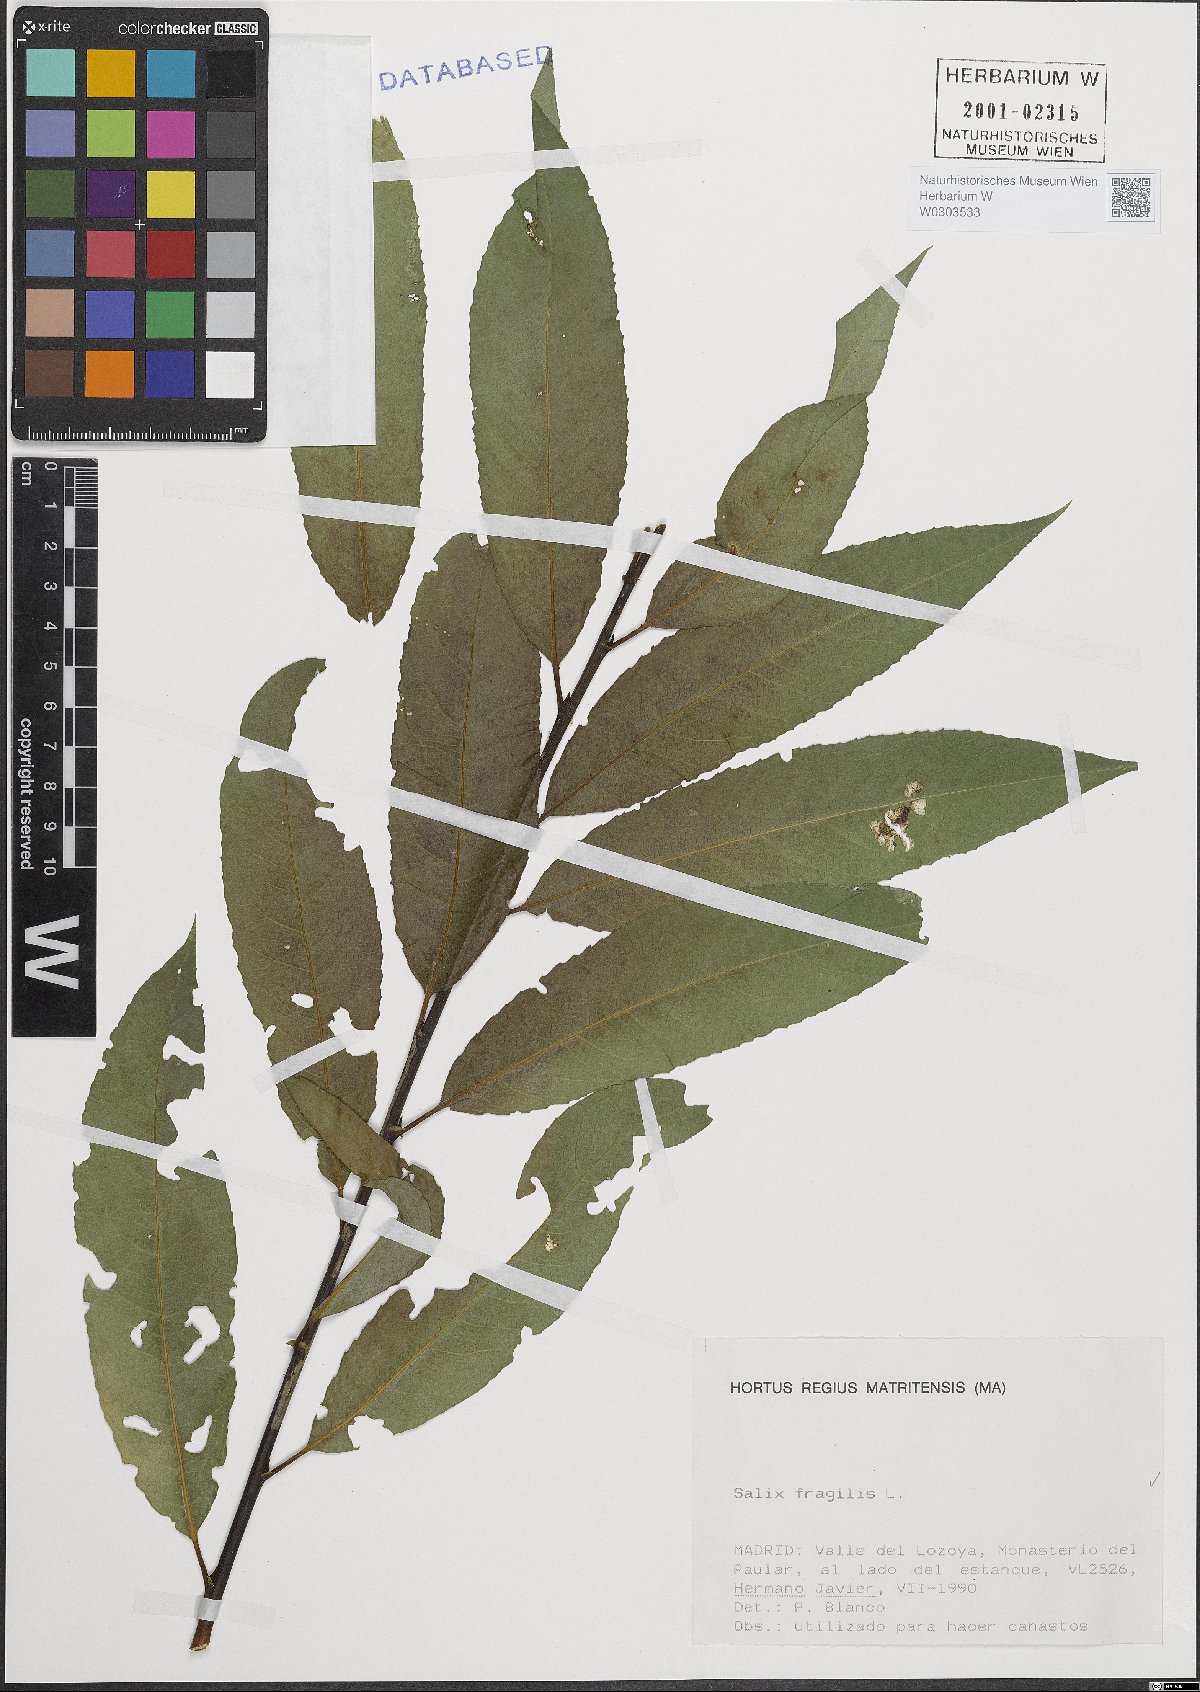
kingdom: Plantae
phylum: Tracheophyta
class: Magnoliopsida
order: Malpighiales
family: Salicaceae
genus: Salix
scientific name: Salix fragilis
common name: Crack willow
